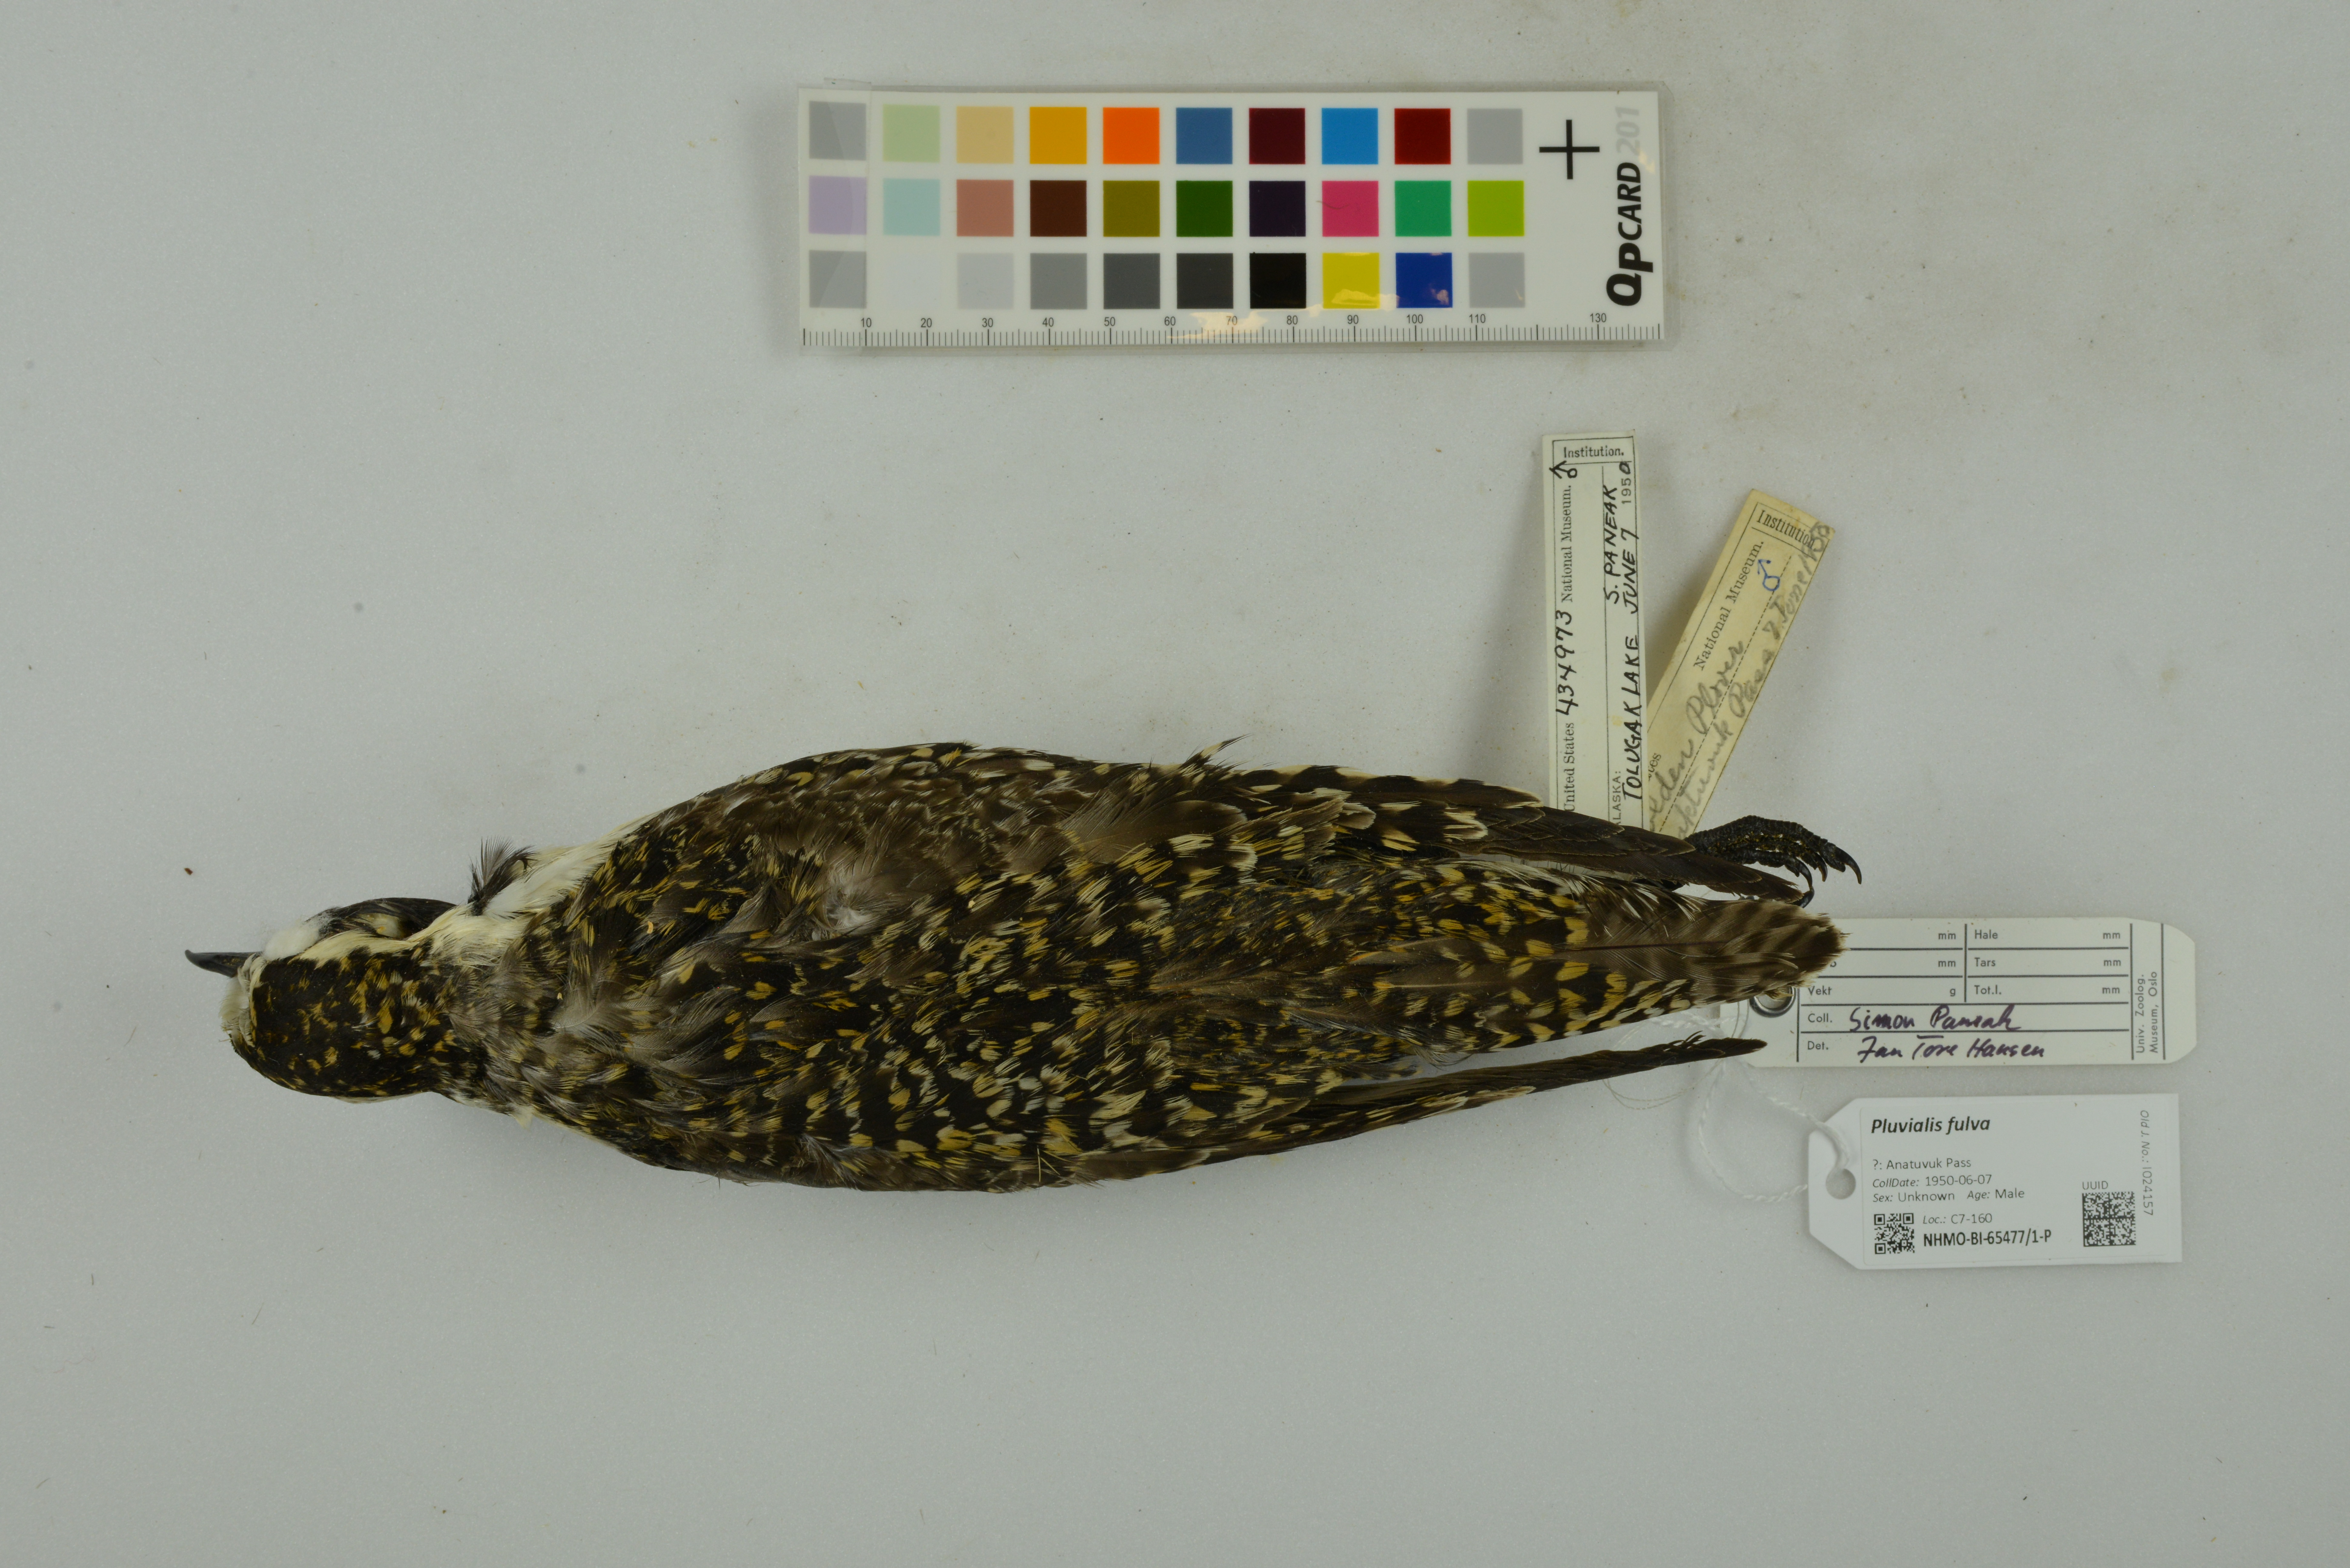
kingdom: Animalia
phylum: Chordata
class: Aves
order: Charadriiformes
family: Charadriidae
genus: Pluvialis
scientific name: Pluvialis fulva
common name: Pacific golden plover
